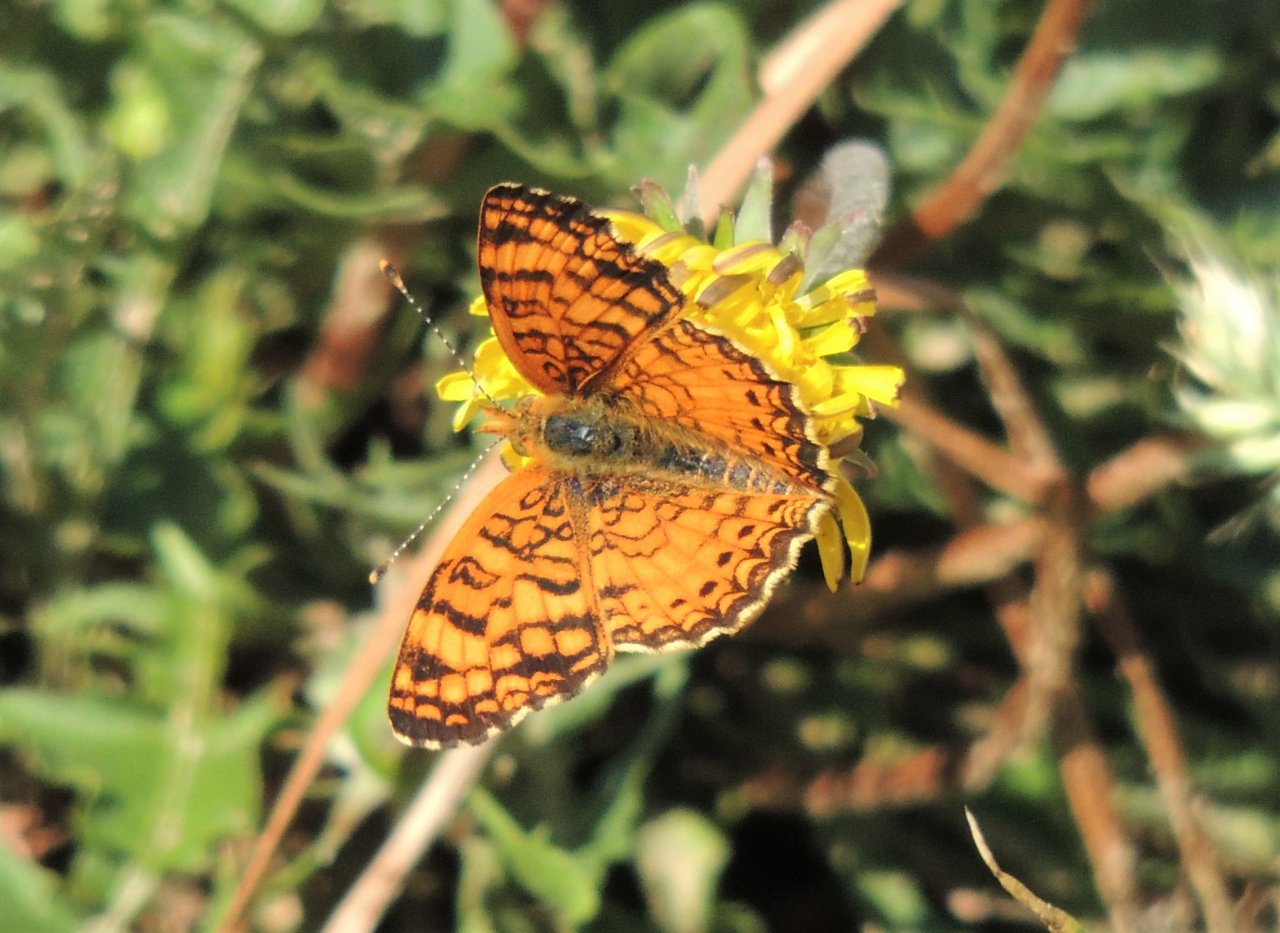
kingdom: Animalia
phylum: Arthropoda
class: Insecta
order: Lepidoptera
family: Nymphalidae
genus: Eresia
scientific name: Eresia aveyrona
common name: Mylitta Crescent
